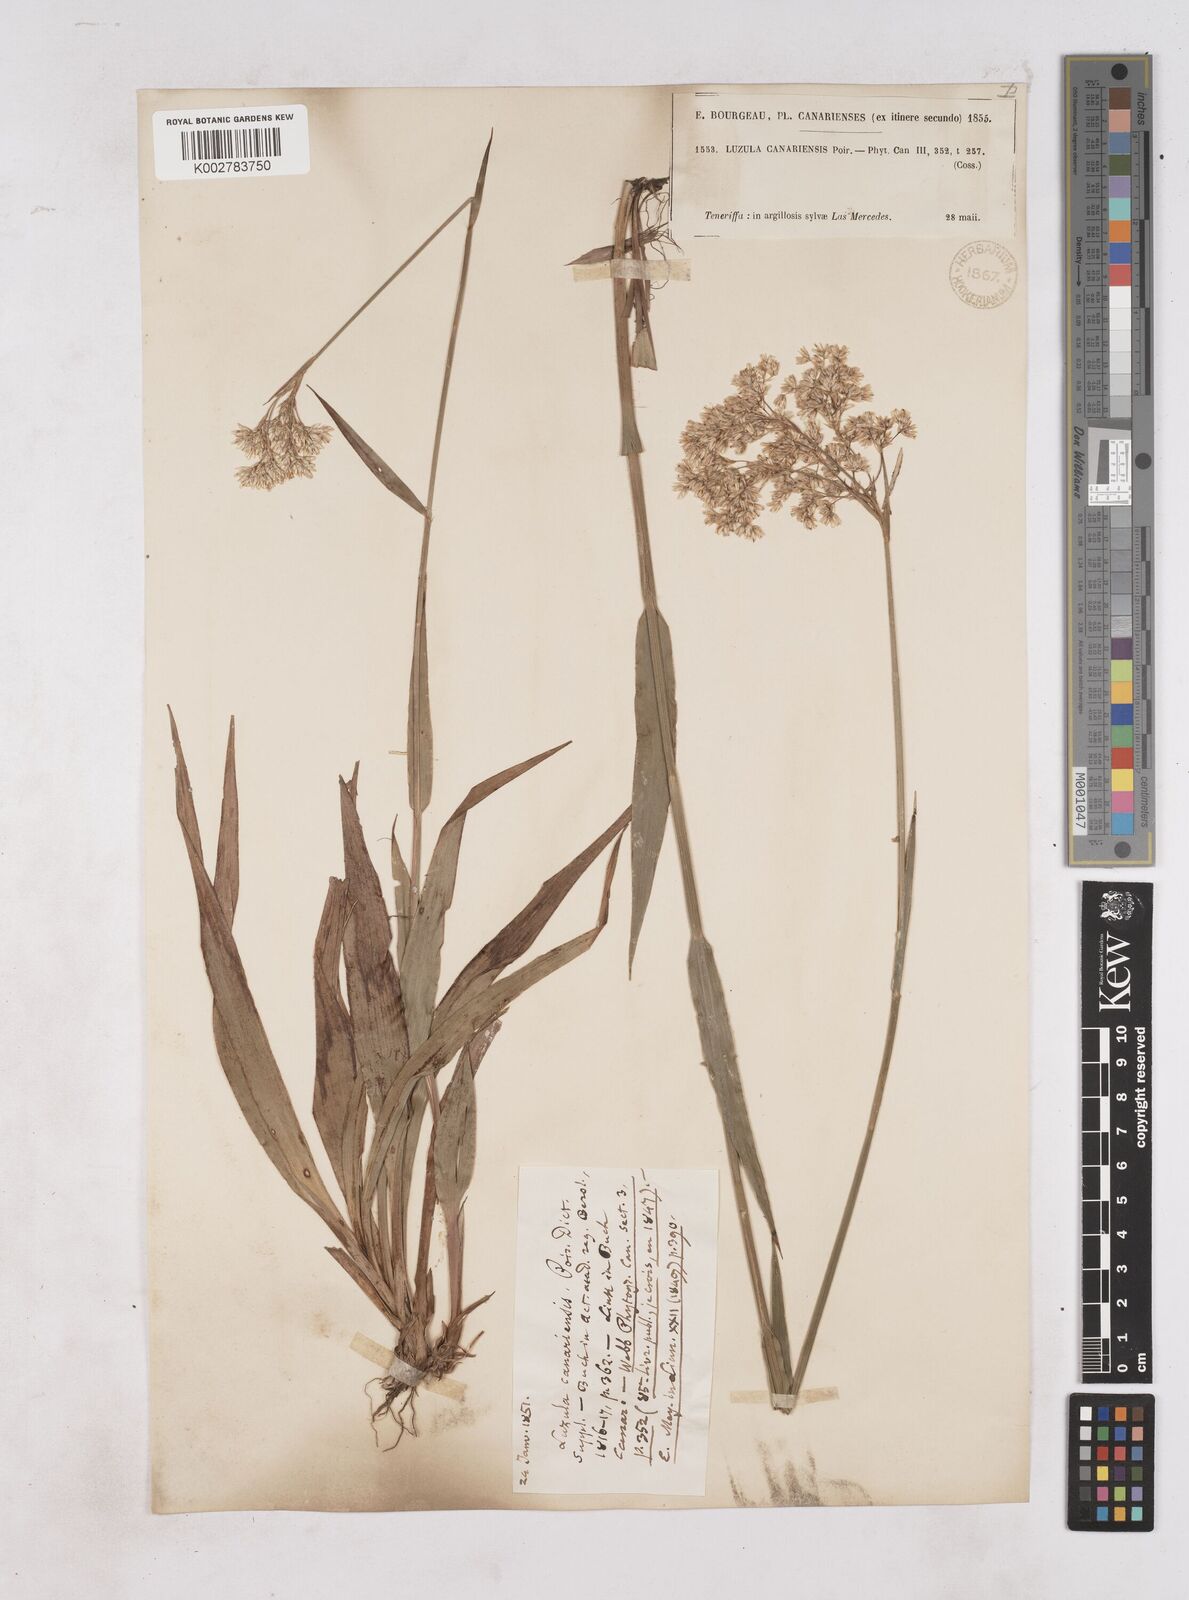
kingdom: Plantae
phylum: Tracheophyta
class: Liliopsida
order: Poales
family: Juncaceae
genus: Luzula
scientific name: Luzula canariensis
